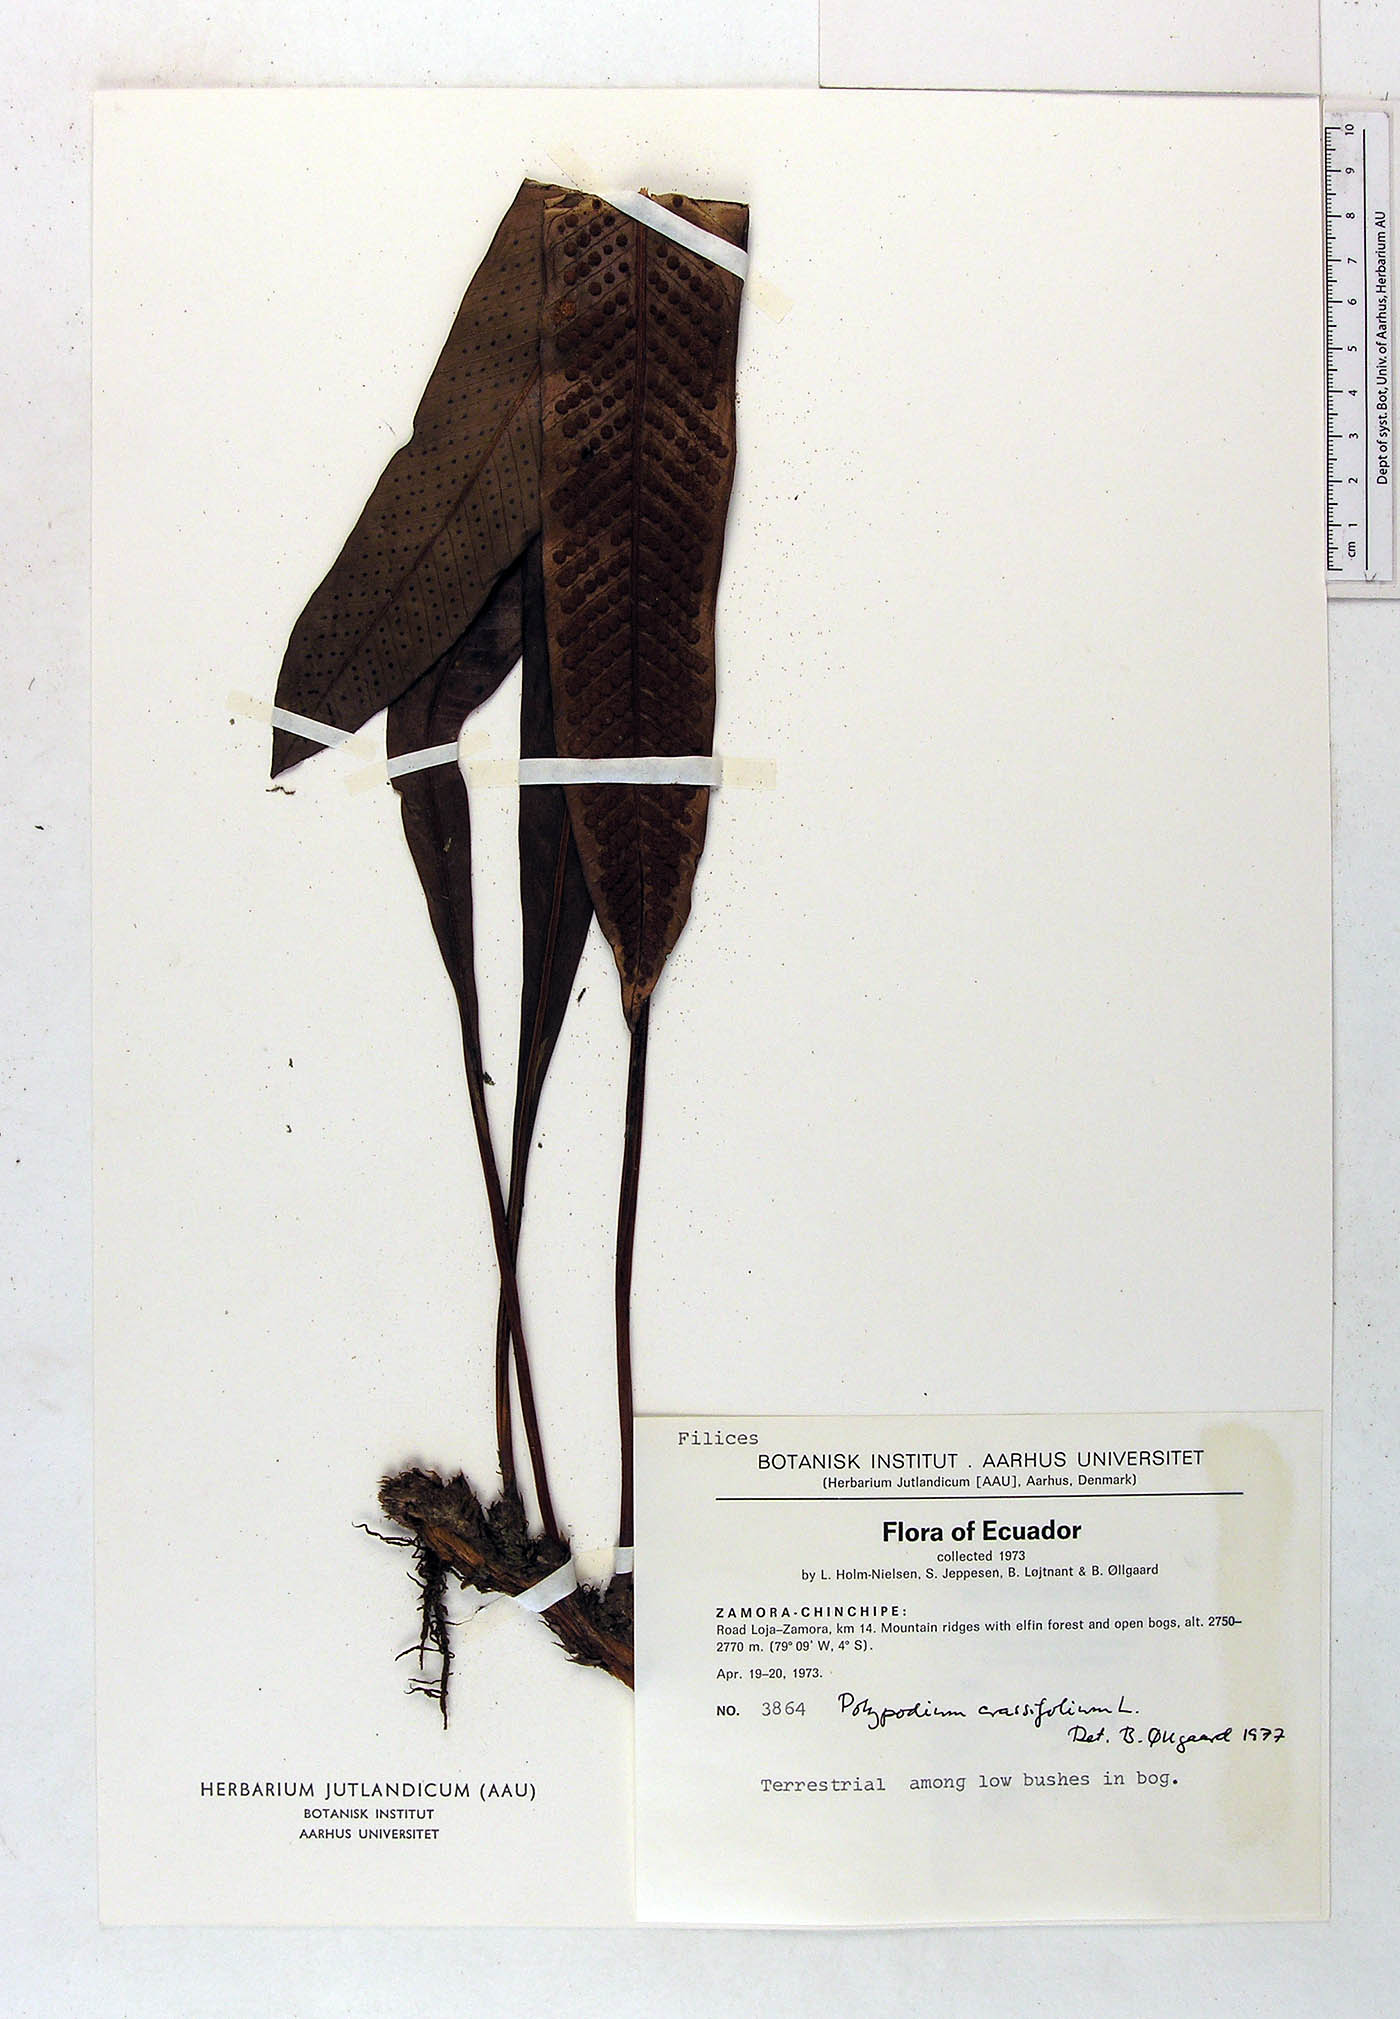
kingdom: Plantae
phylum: Tracheophyta
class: Polypodiopsida
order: Polypodiales
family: Polypodiaceae
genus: Niphidium
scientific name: Niphidium crassifolium
